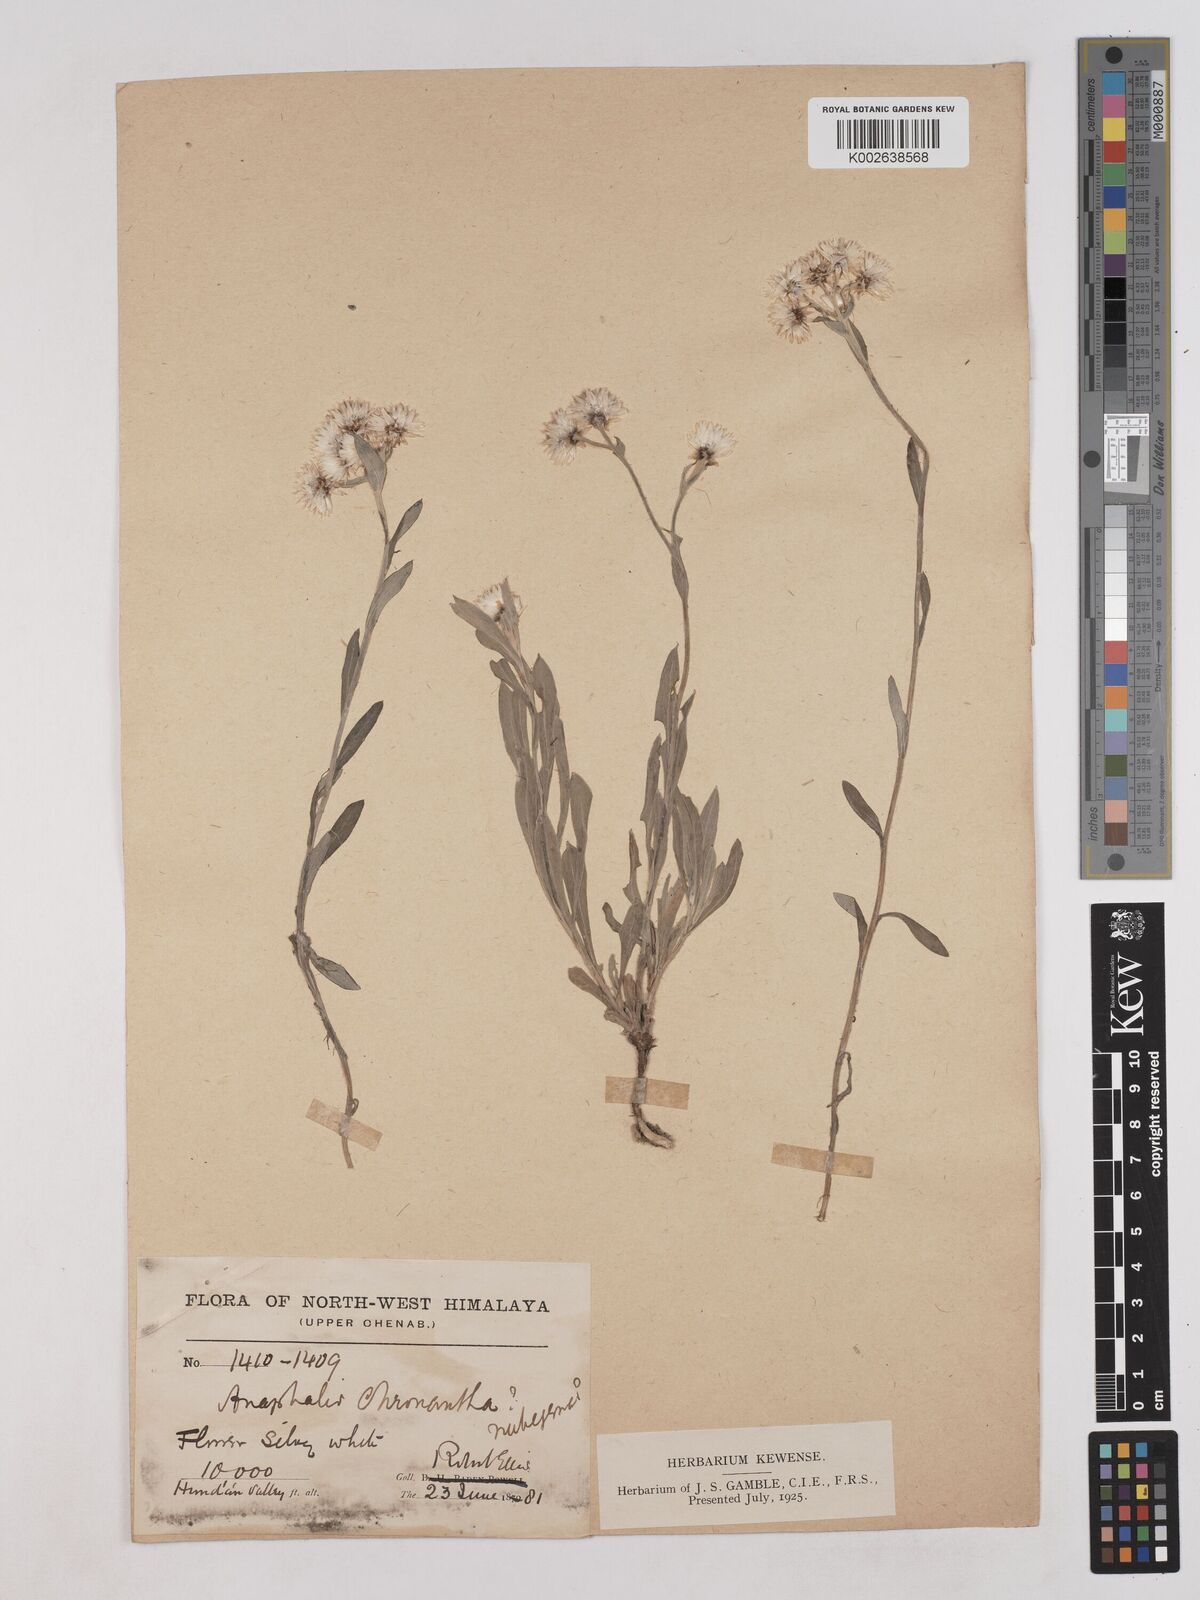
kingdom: Plantae
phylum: Tracheophyta
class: Magnoliopsida
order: Asterales
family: Asteraceae
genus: Anaphalis
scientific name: Anaphalis royleana
